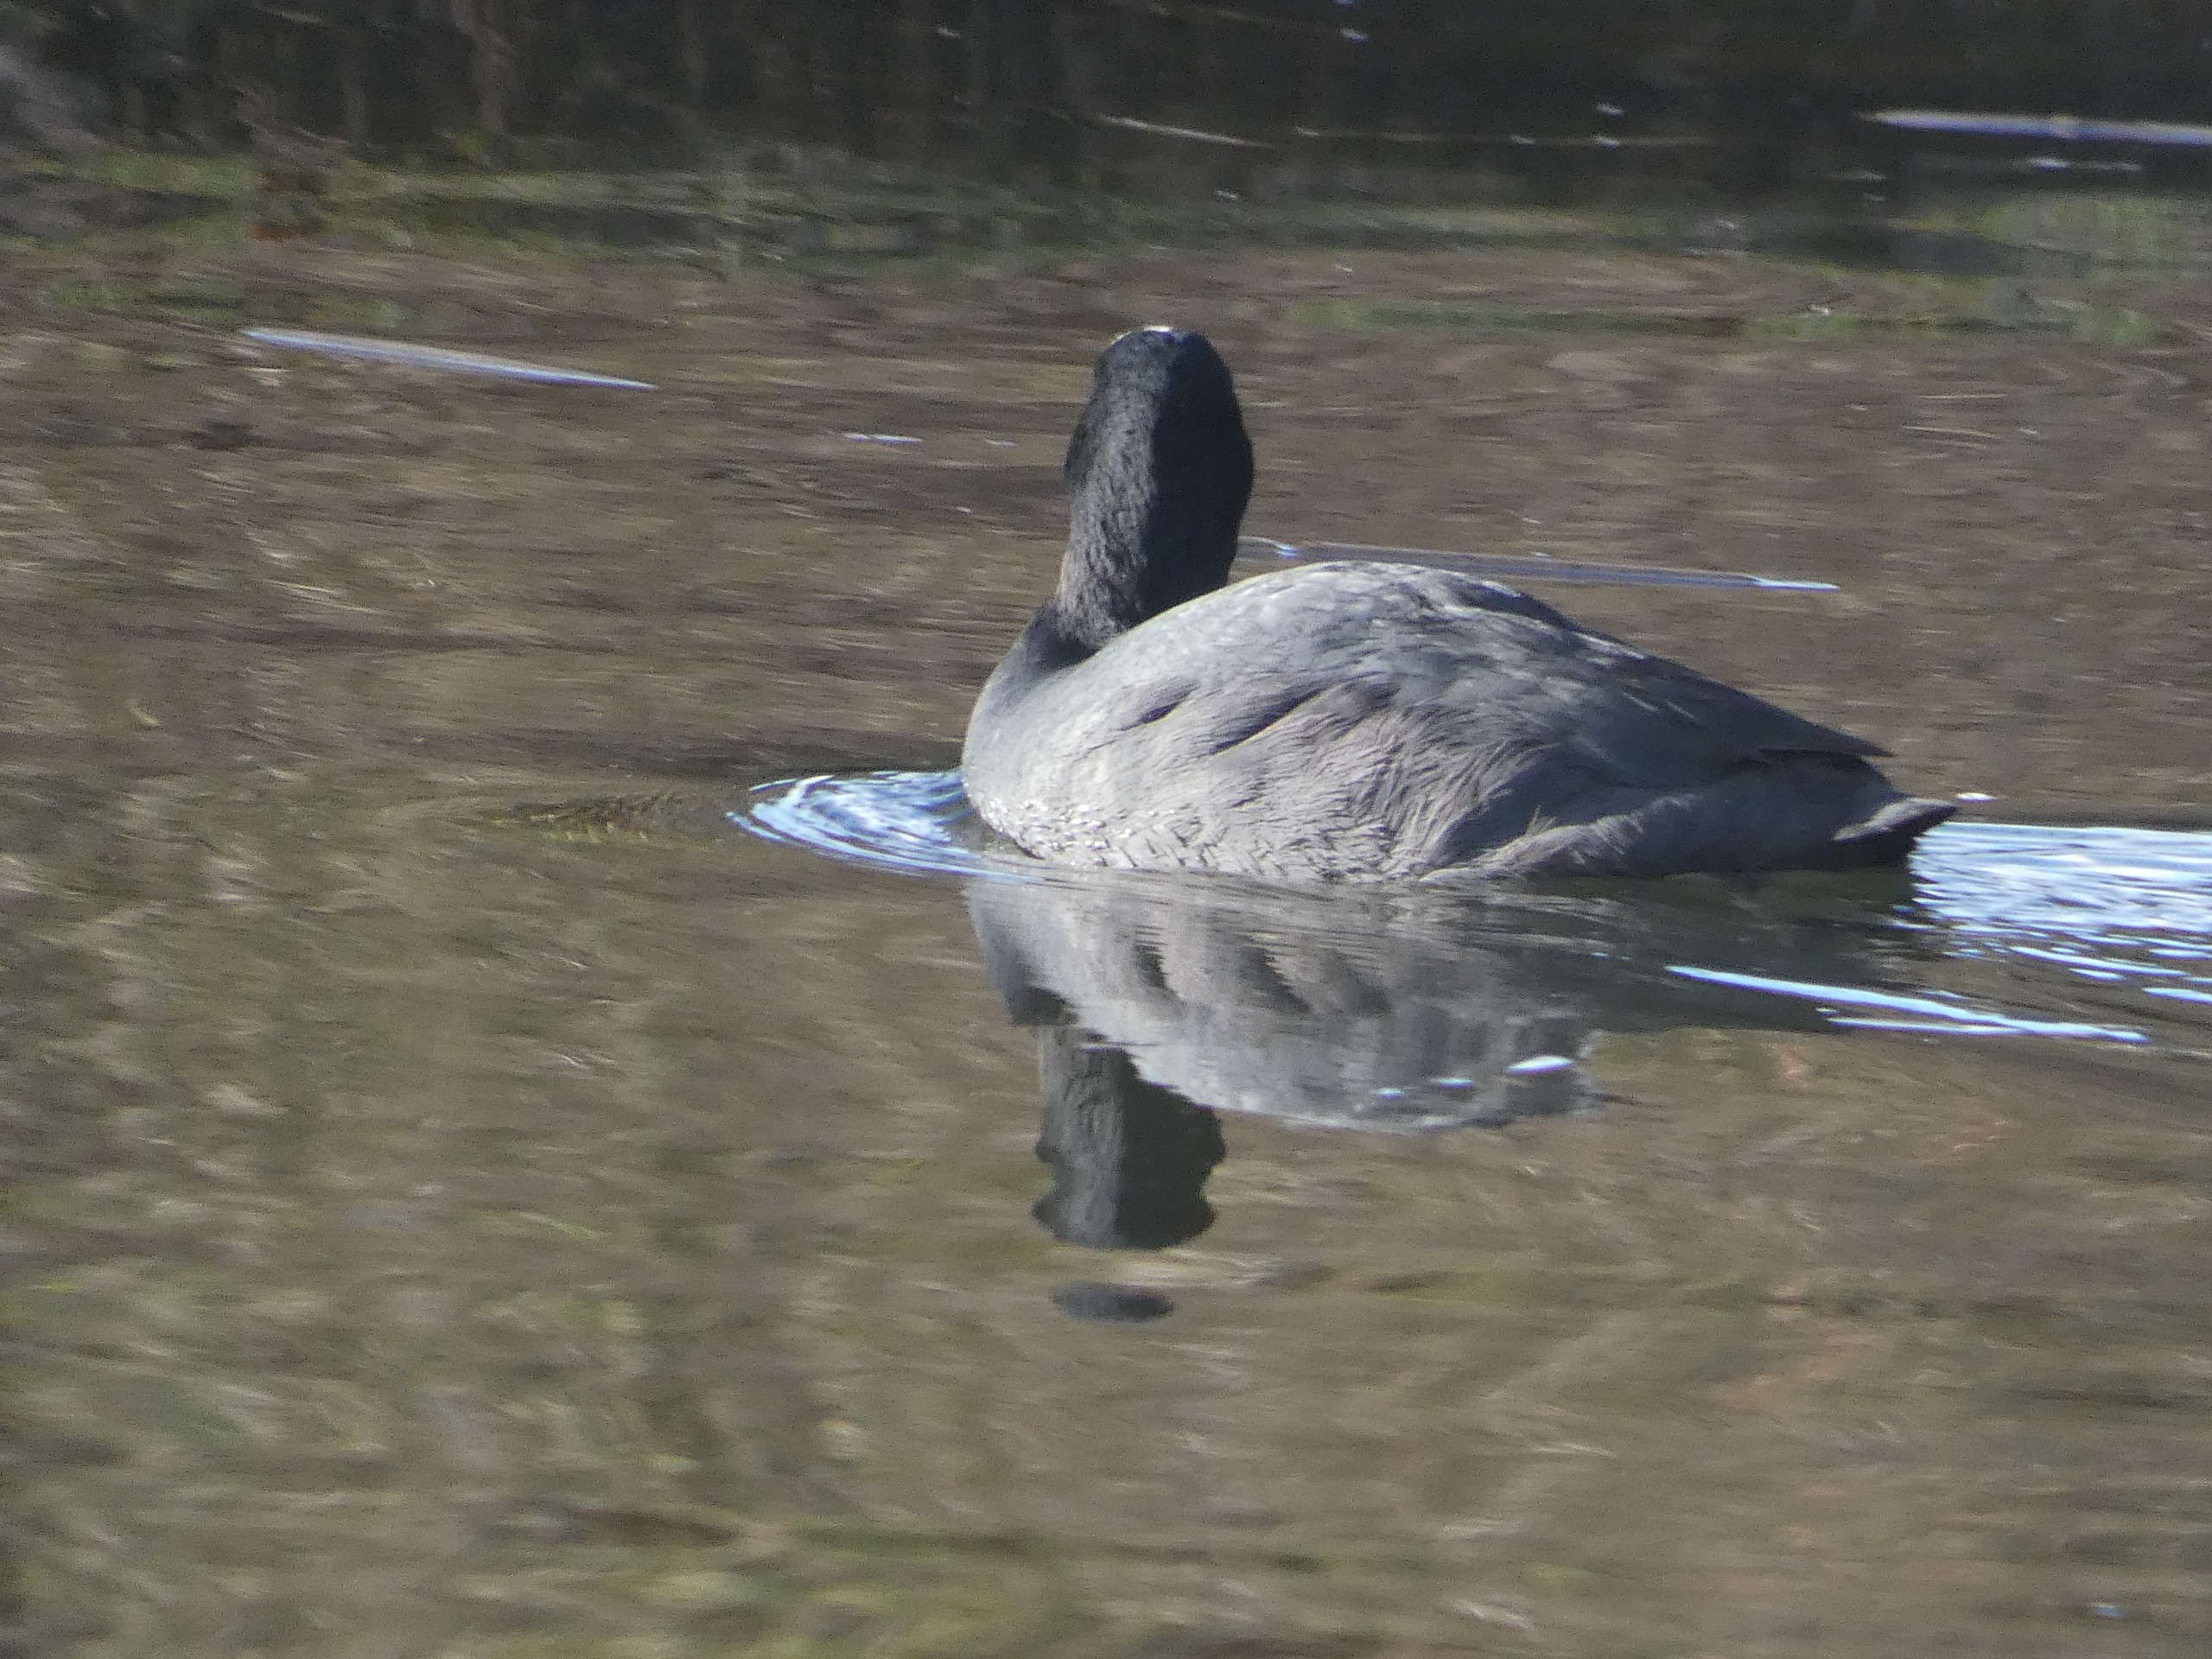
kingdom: Animalia
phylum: Chordata
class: Aves
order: Gruiformes
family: Rallidae
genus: Fulica
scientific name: Fulica atra
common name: Blishøne
